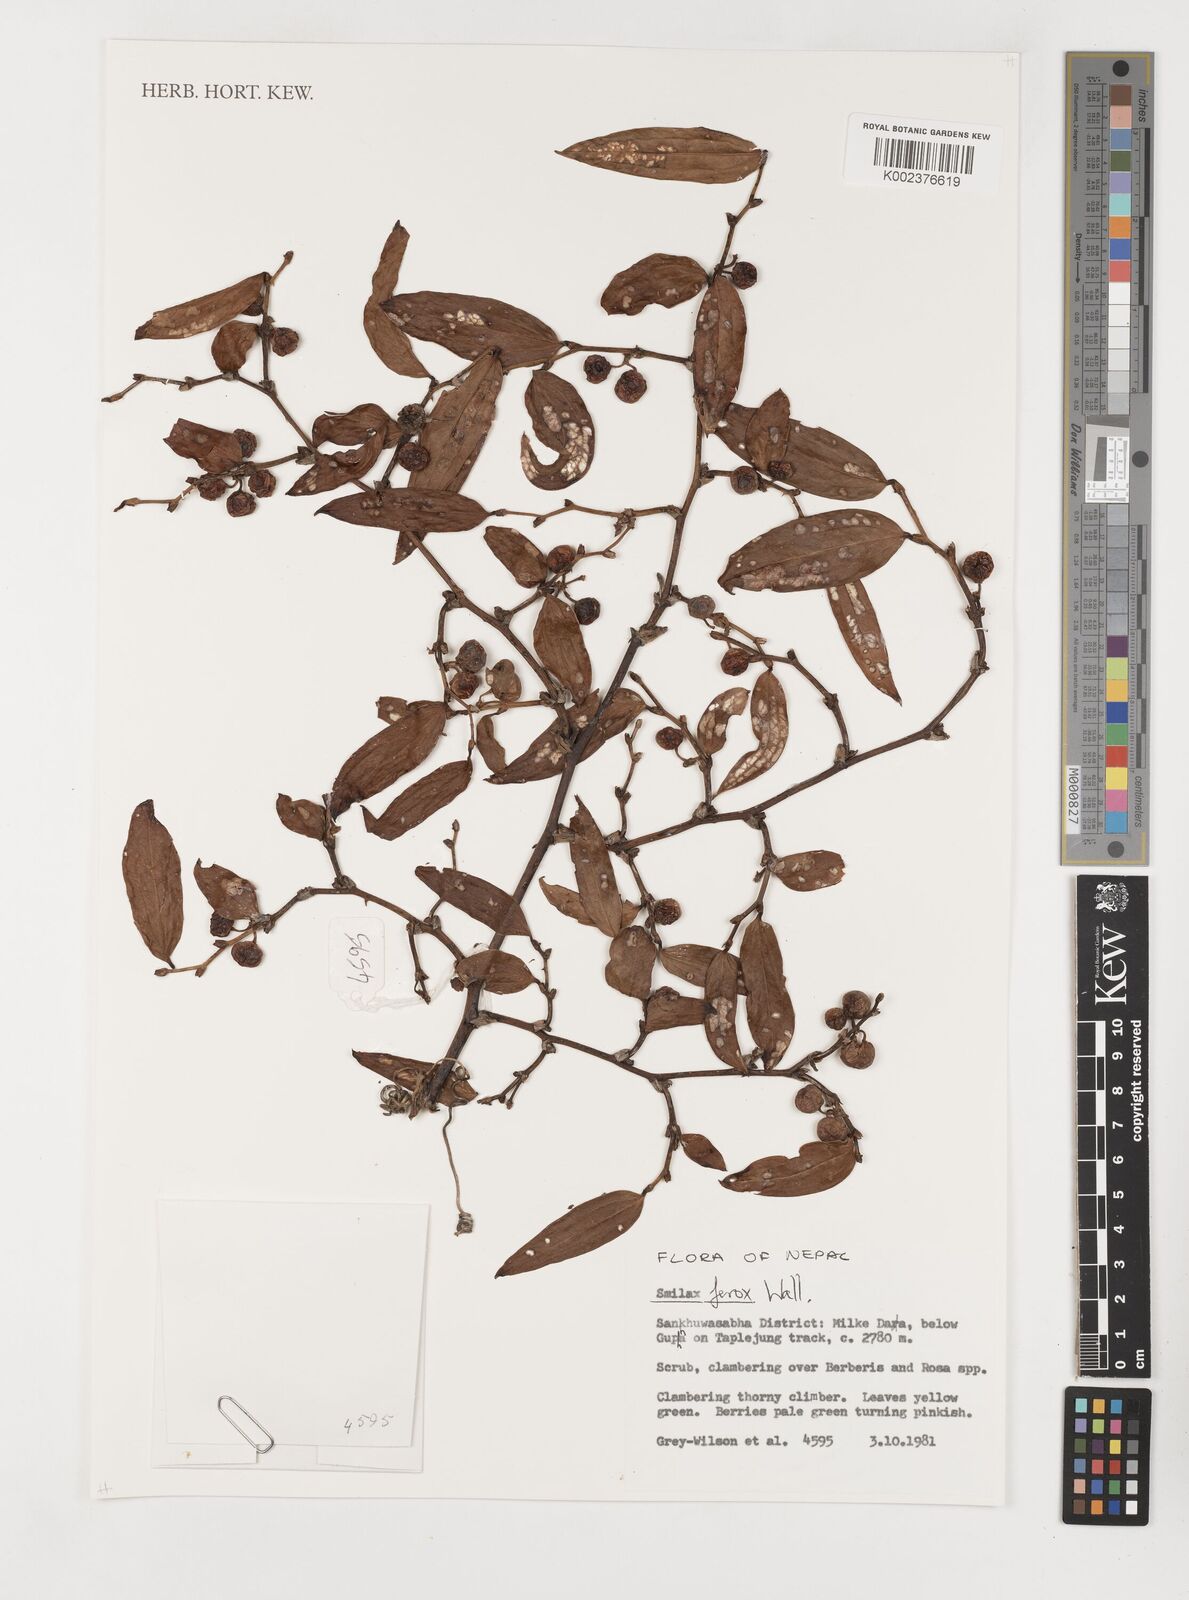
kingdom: Plantae
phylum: Tracheophyta
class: Liliopsida
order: Liliales
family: Smilacaceae
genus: Smilax
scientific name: Smilax ferox
